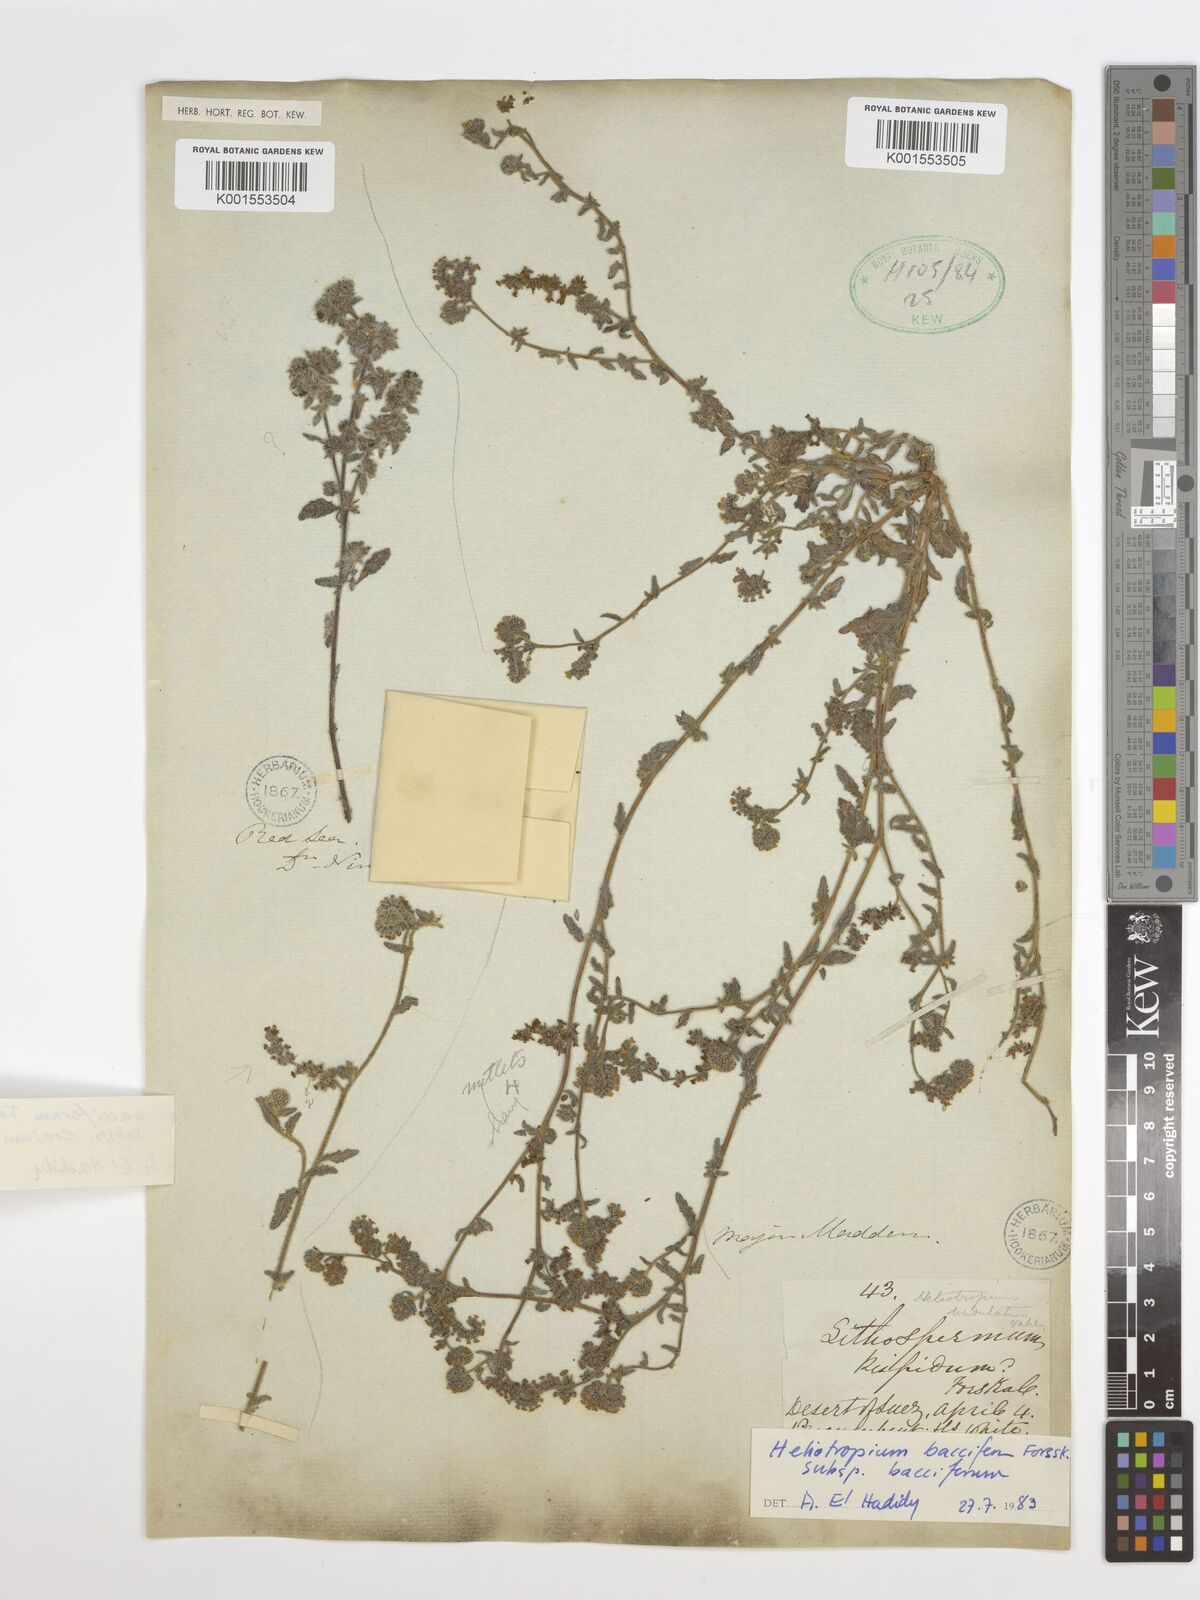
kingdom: Plantae
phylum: Tracheophyta
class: Magnoliopsida
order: Boraginales
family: Heliotropiaceae
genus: Heliotropium
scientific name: Heliotropium ramosissimum
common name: Wavy heliotrope
